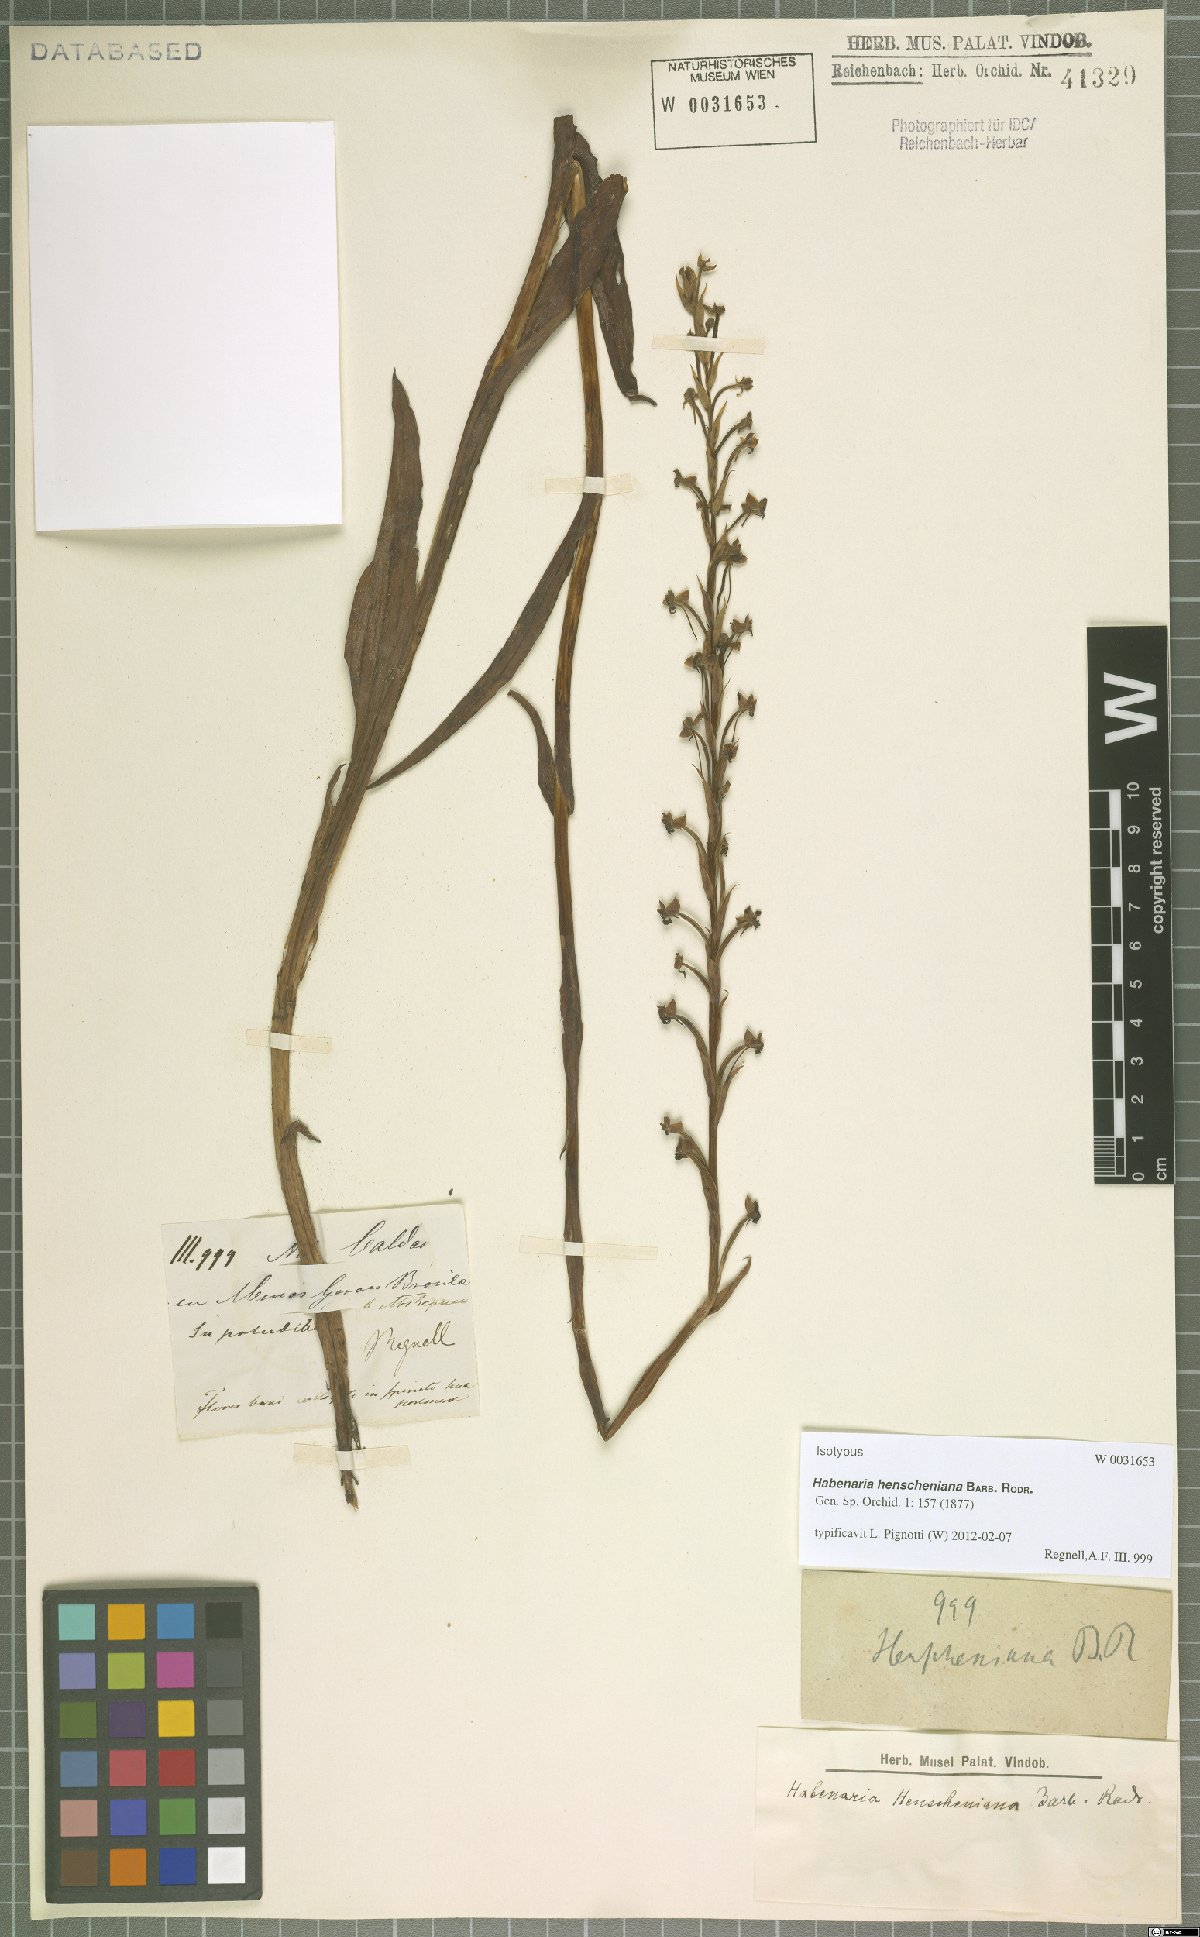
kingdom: Plantae
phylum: Tracheophyta
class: Liliopsida
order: Asparagales
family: Orchidaceae
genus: Habenaria
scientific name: Habenaria henscheniana
